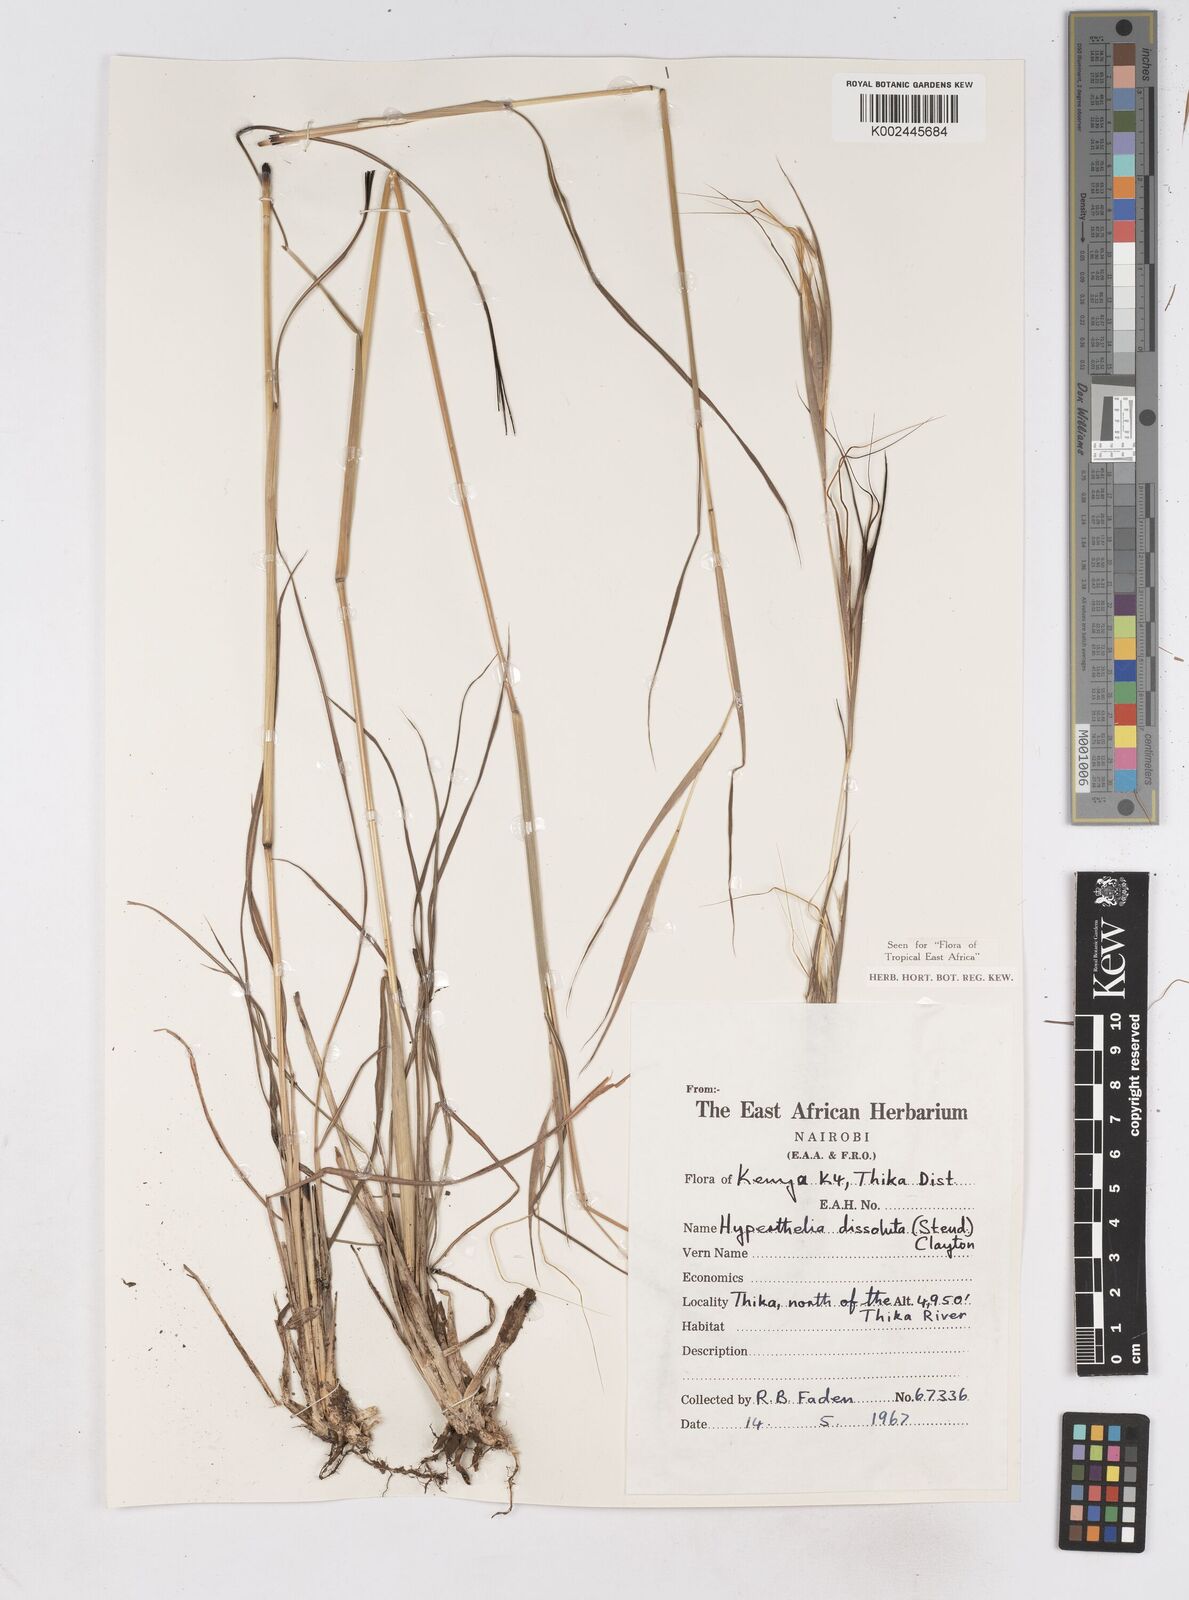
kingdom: Plantae
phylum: Tracheophyta
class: Liliopsida
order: Poales
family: Poaceae
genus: Hyperthelia
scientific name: Hyperthelia dissoluta
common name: Yellow thatching grass
